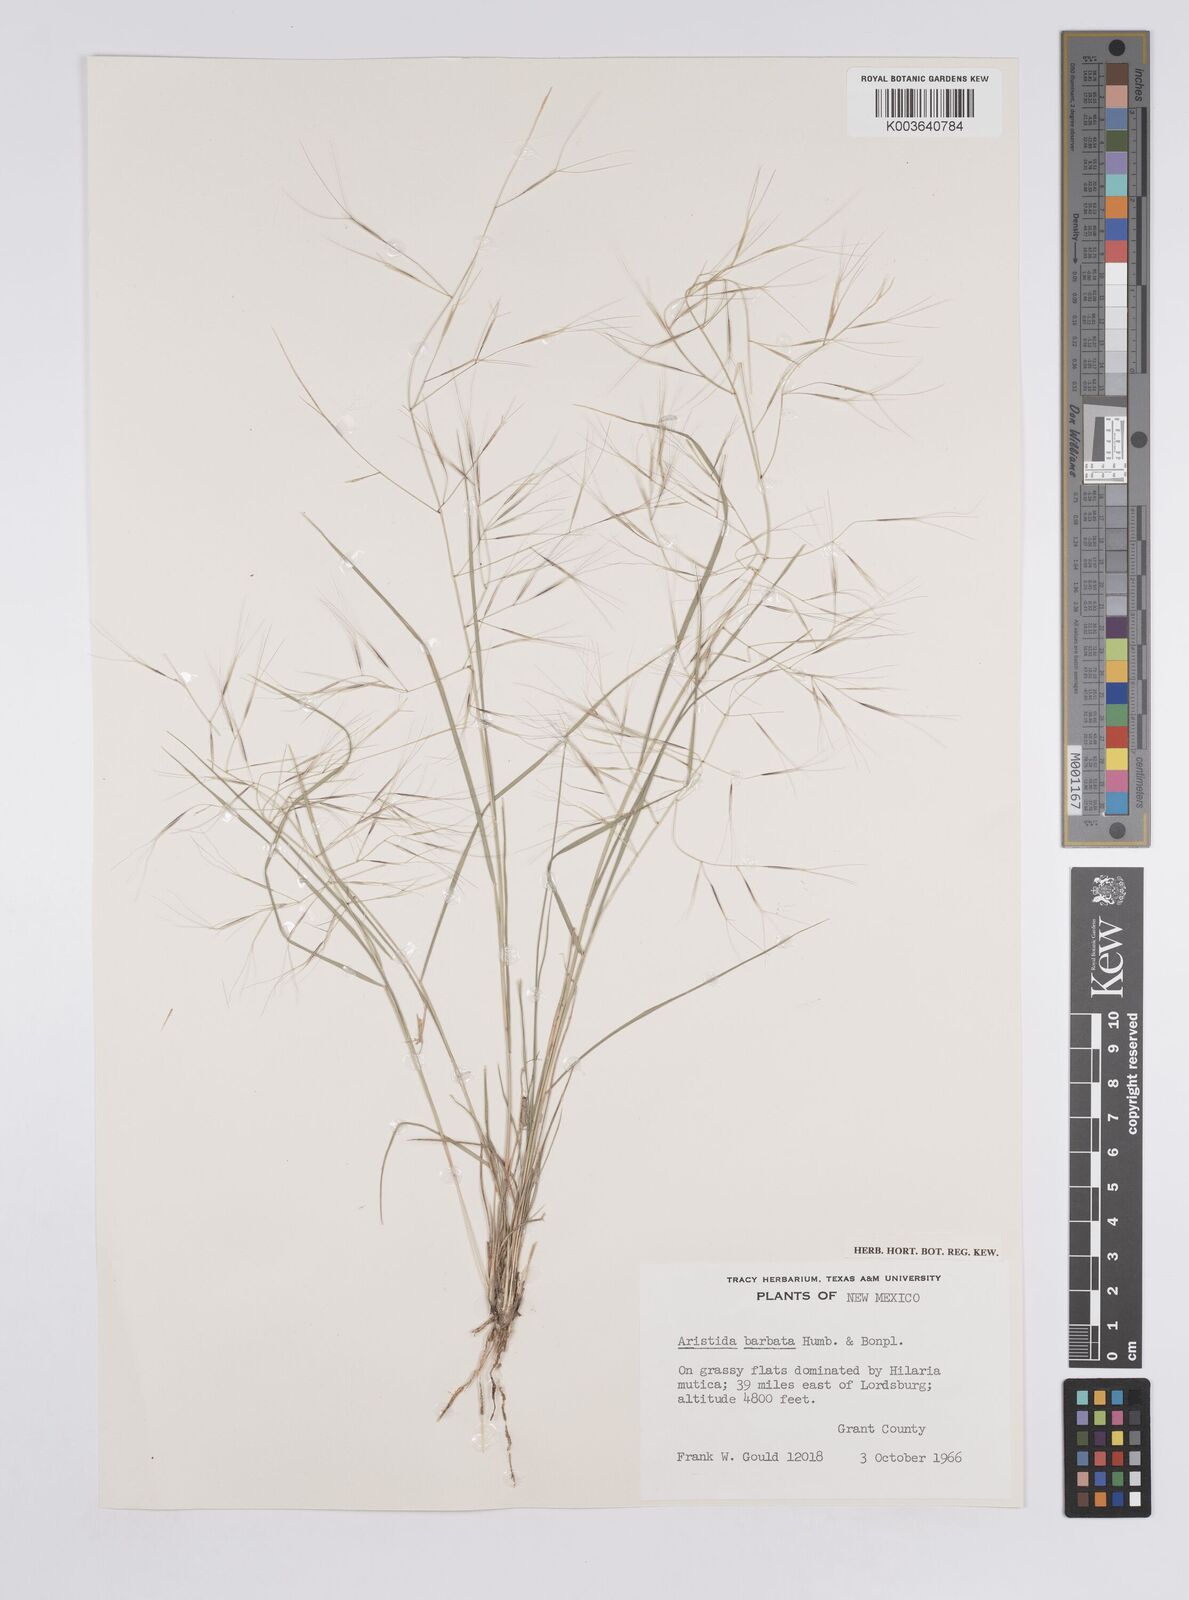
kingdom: Plantae
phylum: Tracheophyta
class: Liliopsida
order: Poales
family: Poaceae
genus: Aristida
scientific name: Aristida havardii
